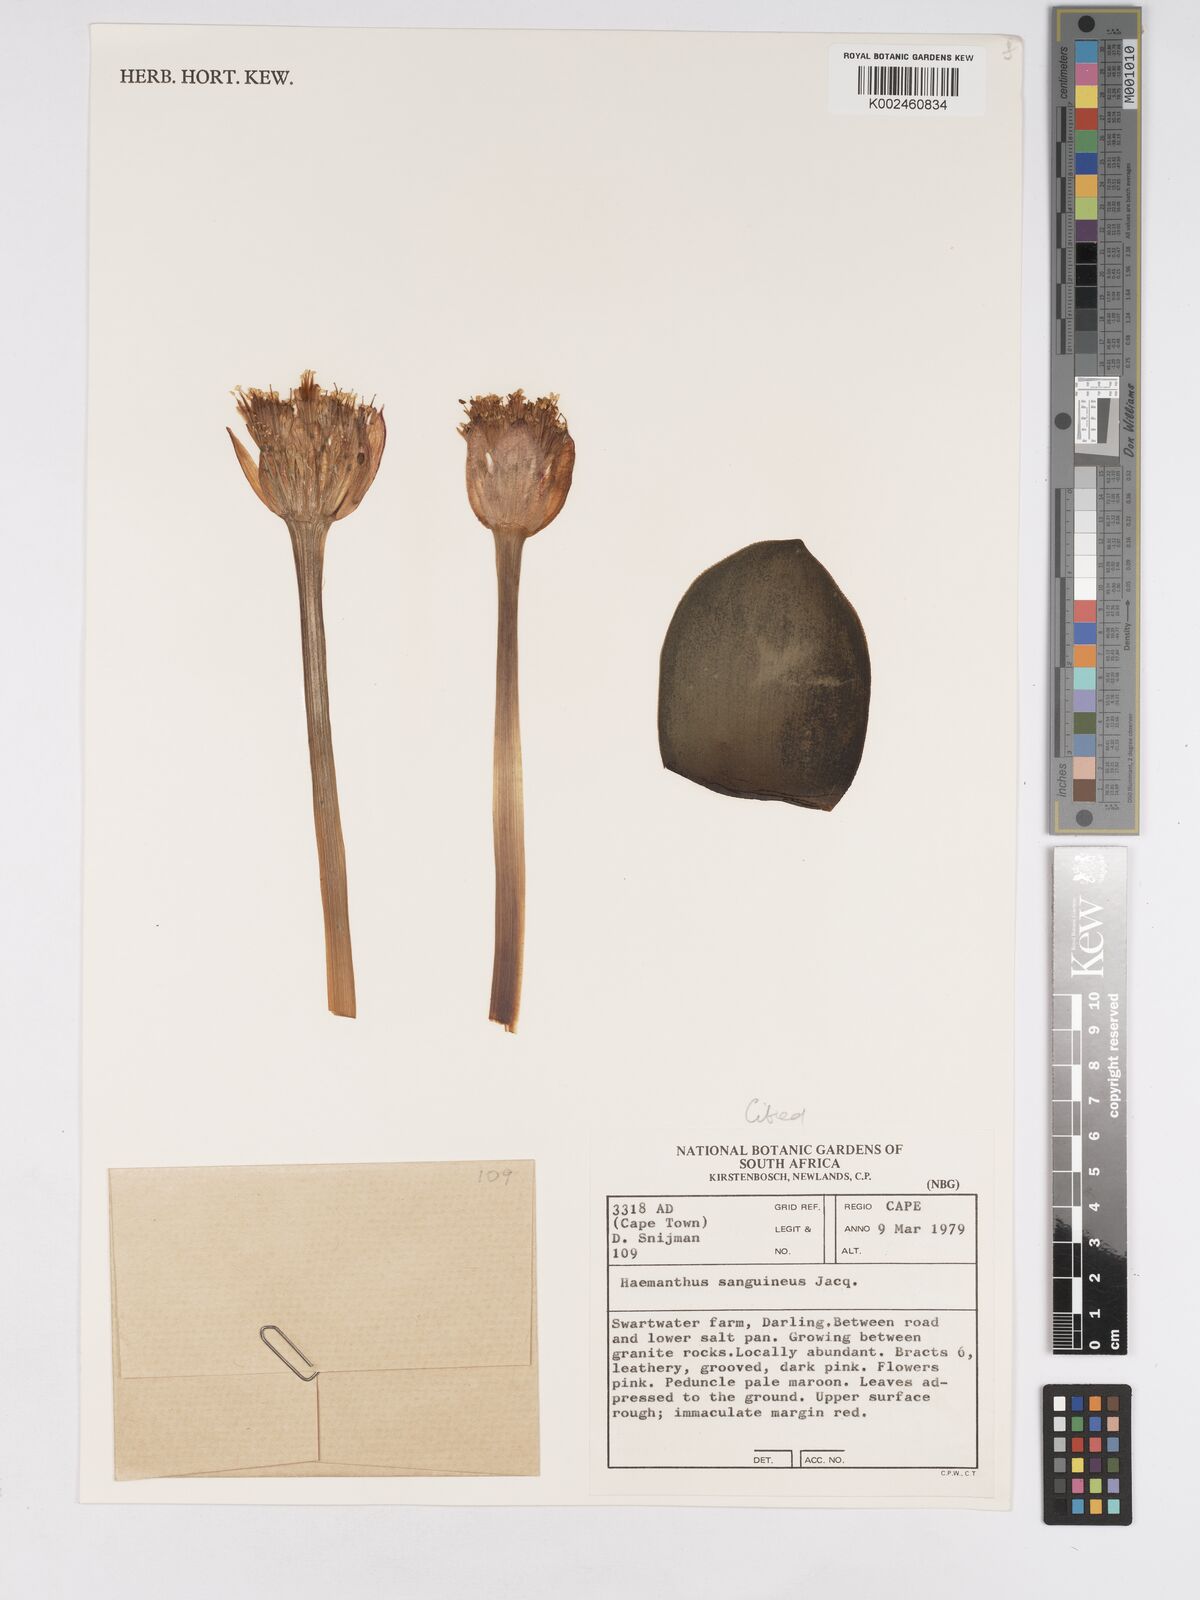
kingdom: Plantae
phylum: Tracheophyta
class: Liliopsida
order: Asparagales
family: Amaryllidaceae
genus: Haemanthus
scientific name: Haemanthus sanguineus
